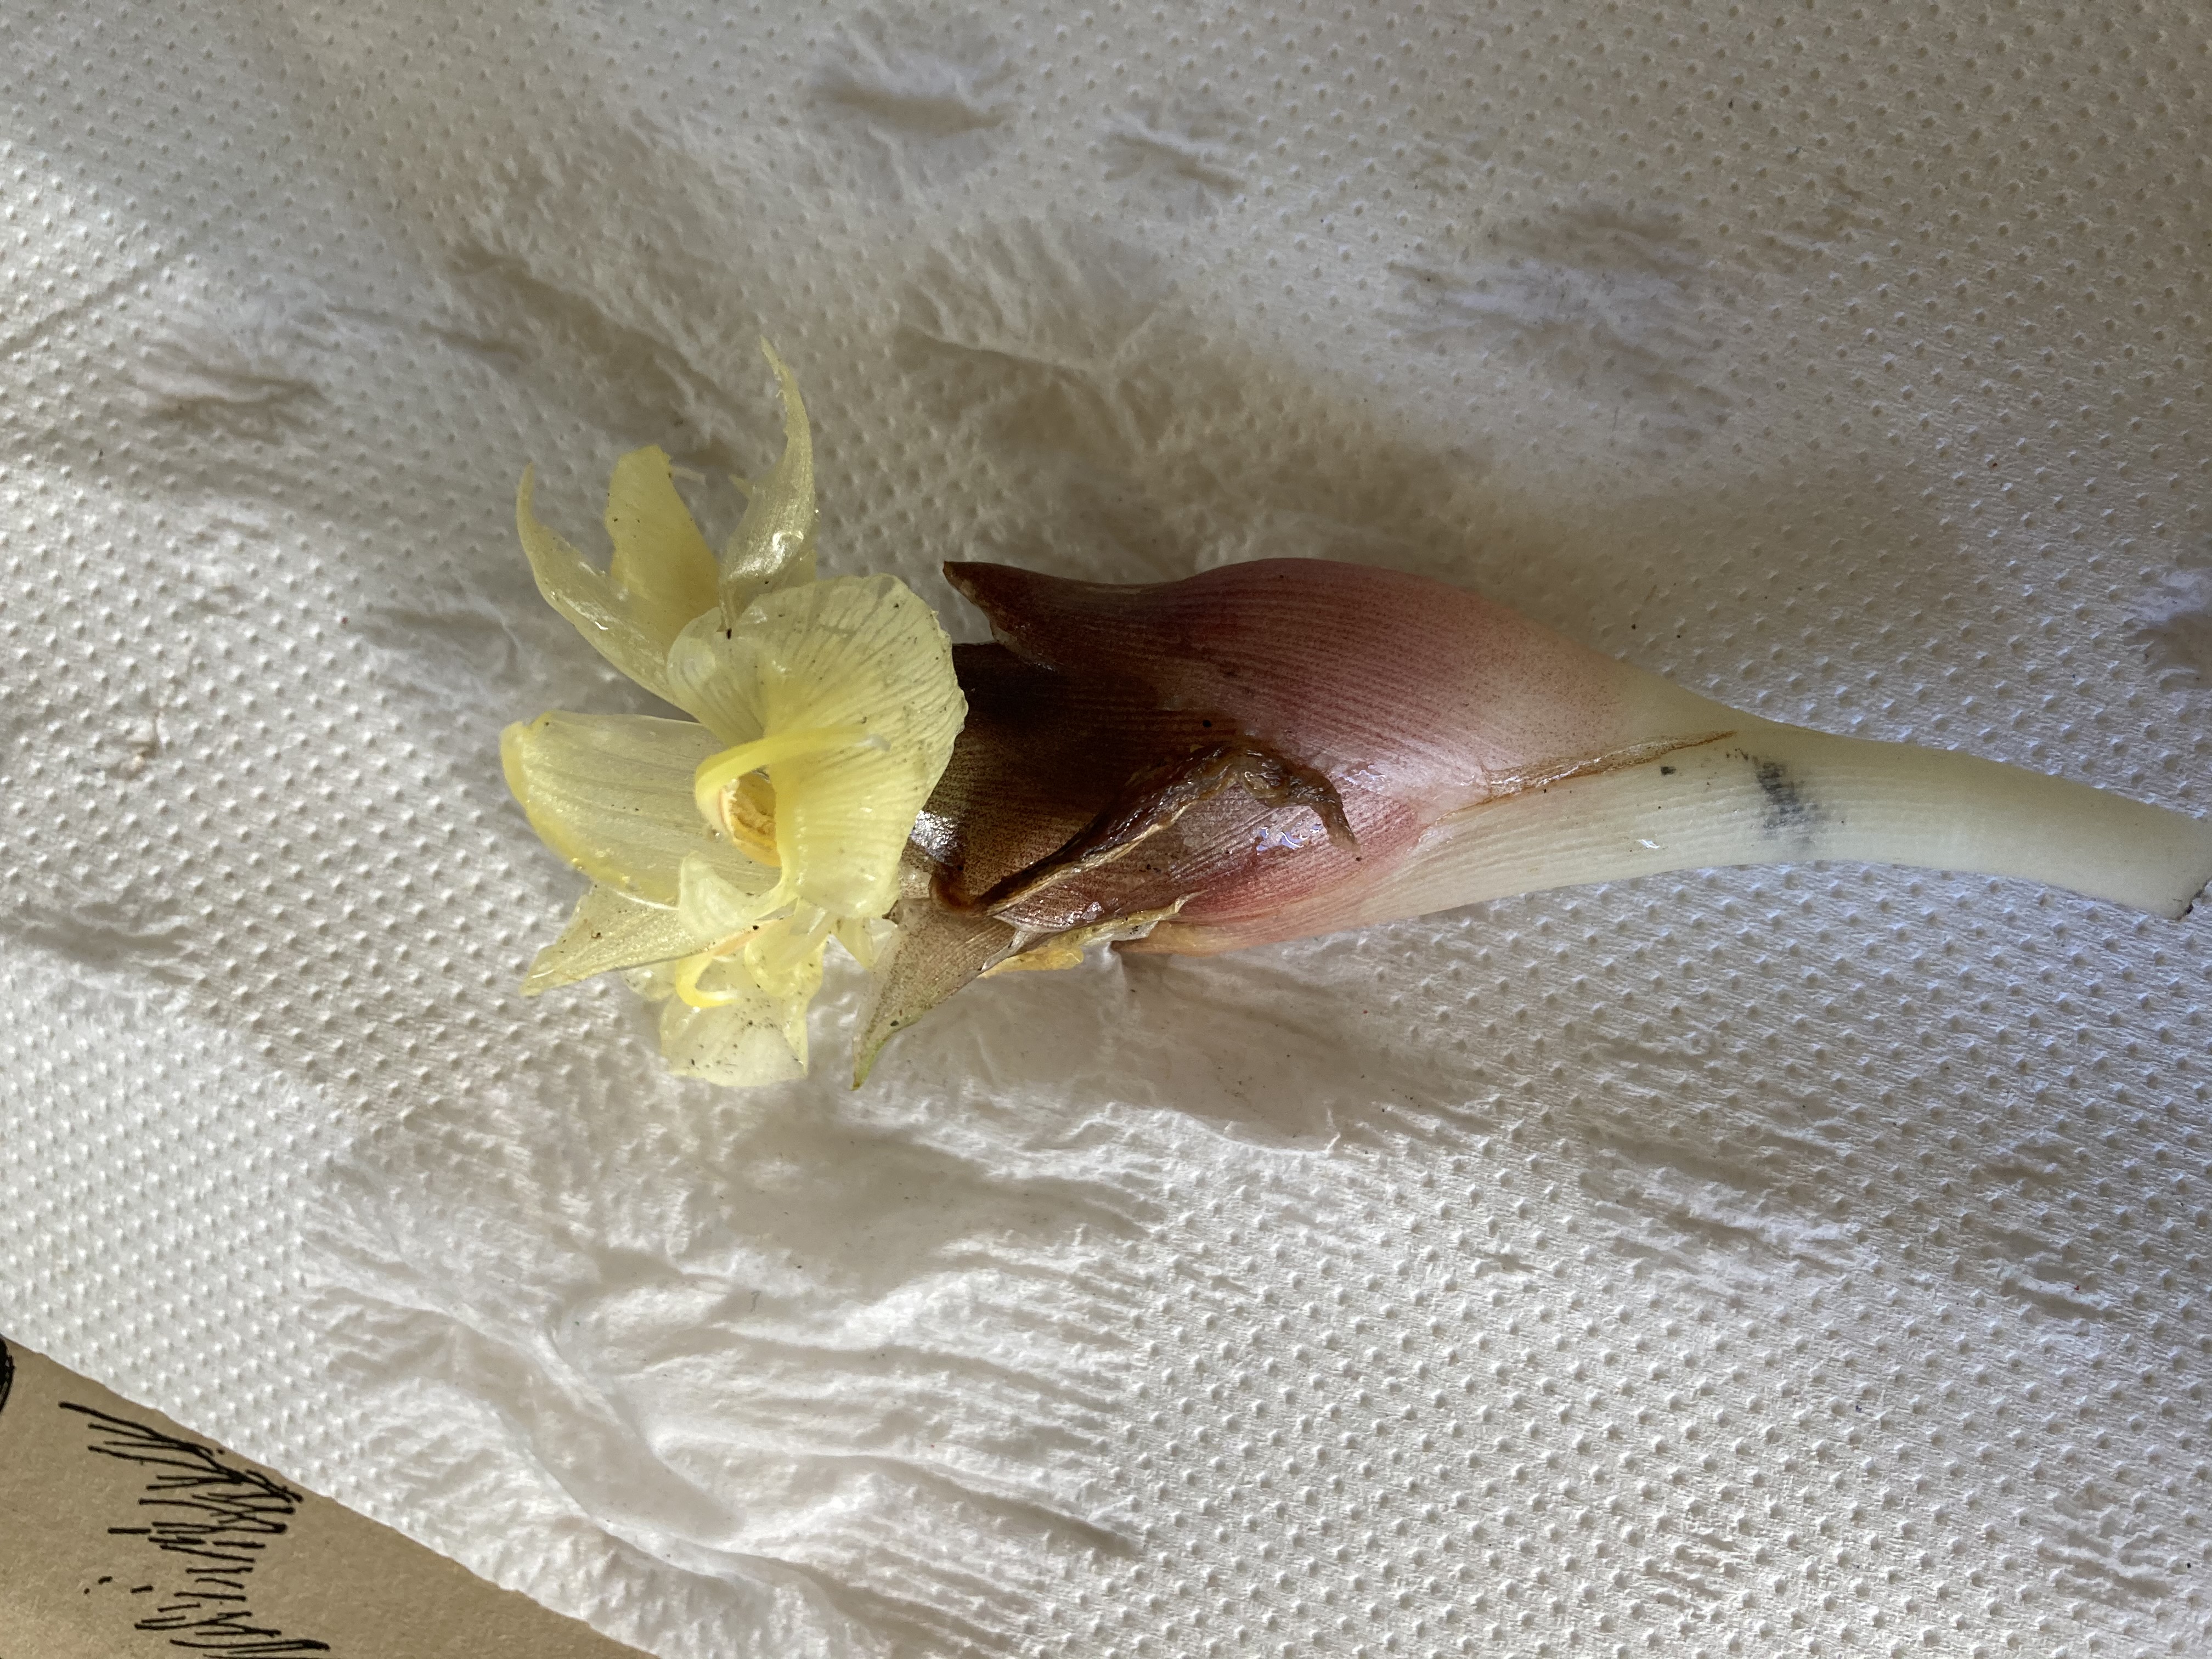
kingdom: Plantae
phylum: Tracheophyta
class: Liliopsida
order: Zingiberales
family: Zingiberaceae
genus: Zingiber
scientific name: Zingiber mioga
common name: Japanese ginger
